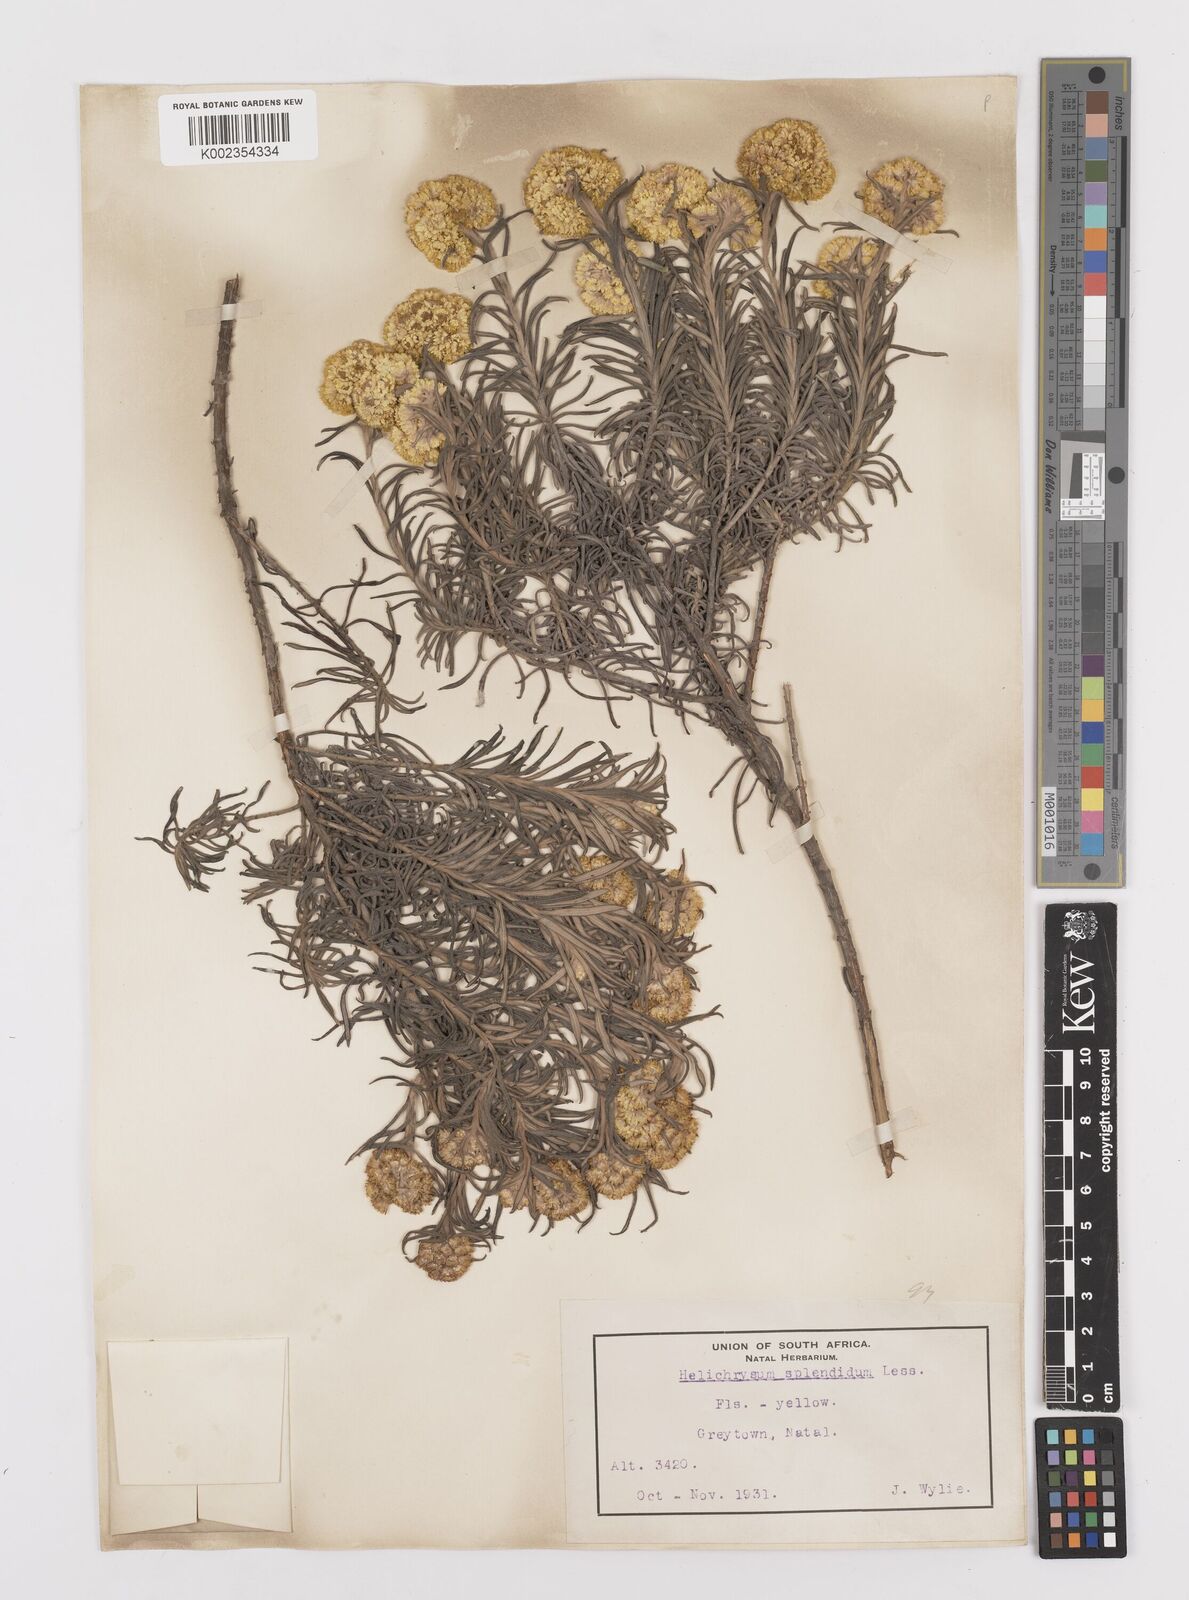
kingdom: Plantae
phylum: Tracheophyta
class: Magnoliopsida
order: Asterales
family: Asteraceae
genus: Helichrysum
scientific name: Helichrysum splendidum
